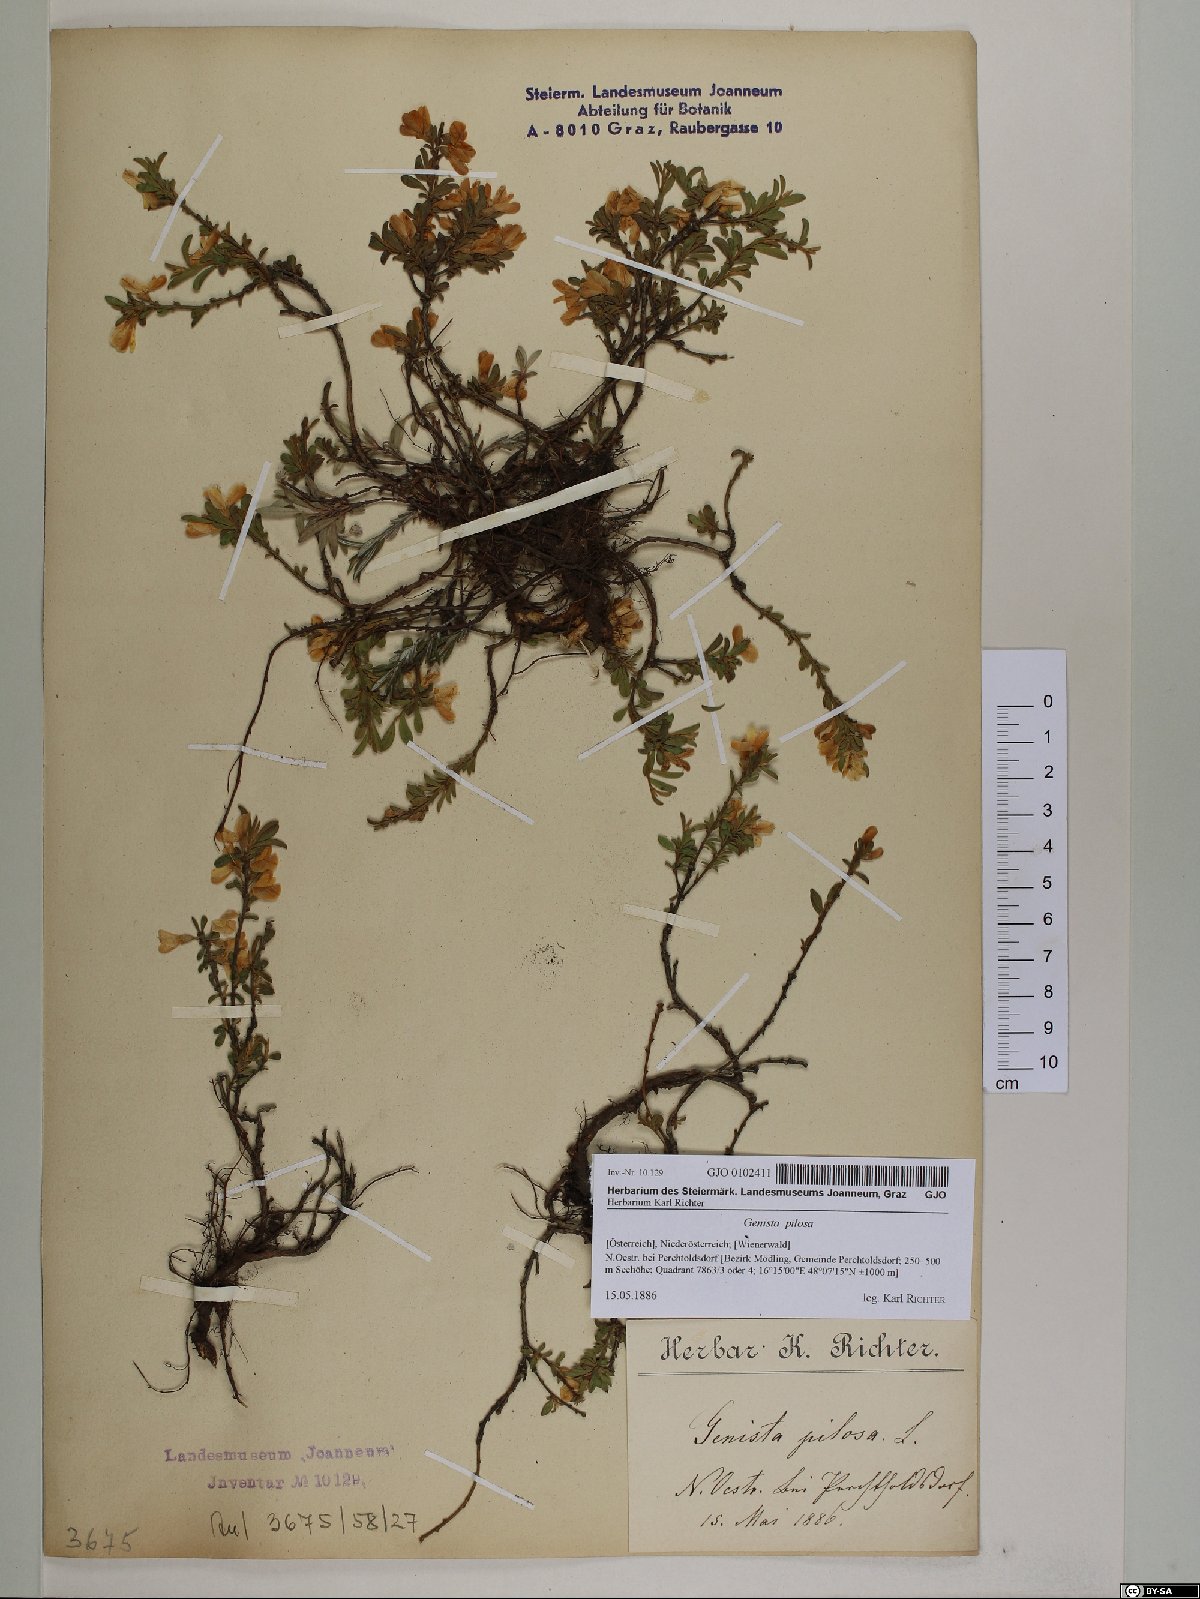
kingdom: Plantae
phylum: Tracheophyta
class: Magnoliopsida
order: Fabales
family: Fabaceae
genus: Genista
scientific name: Genista pilosa
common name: Hairy greenweed
